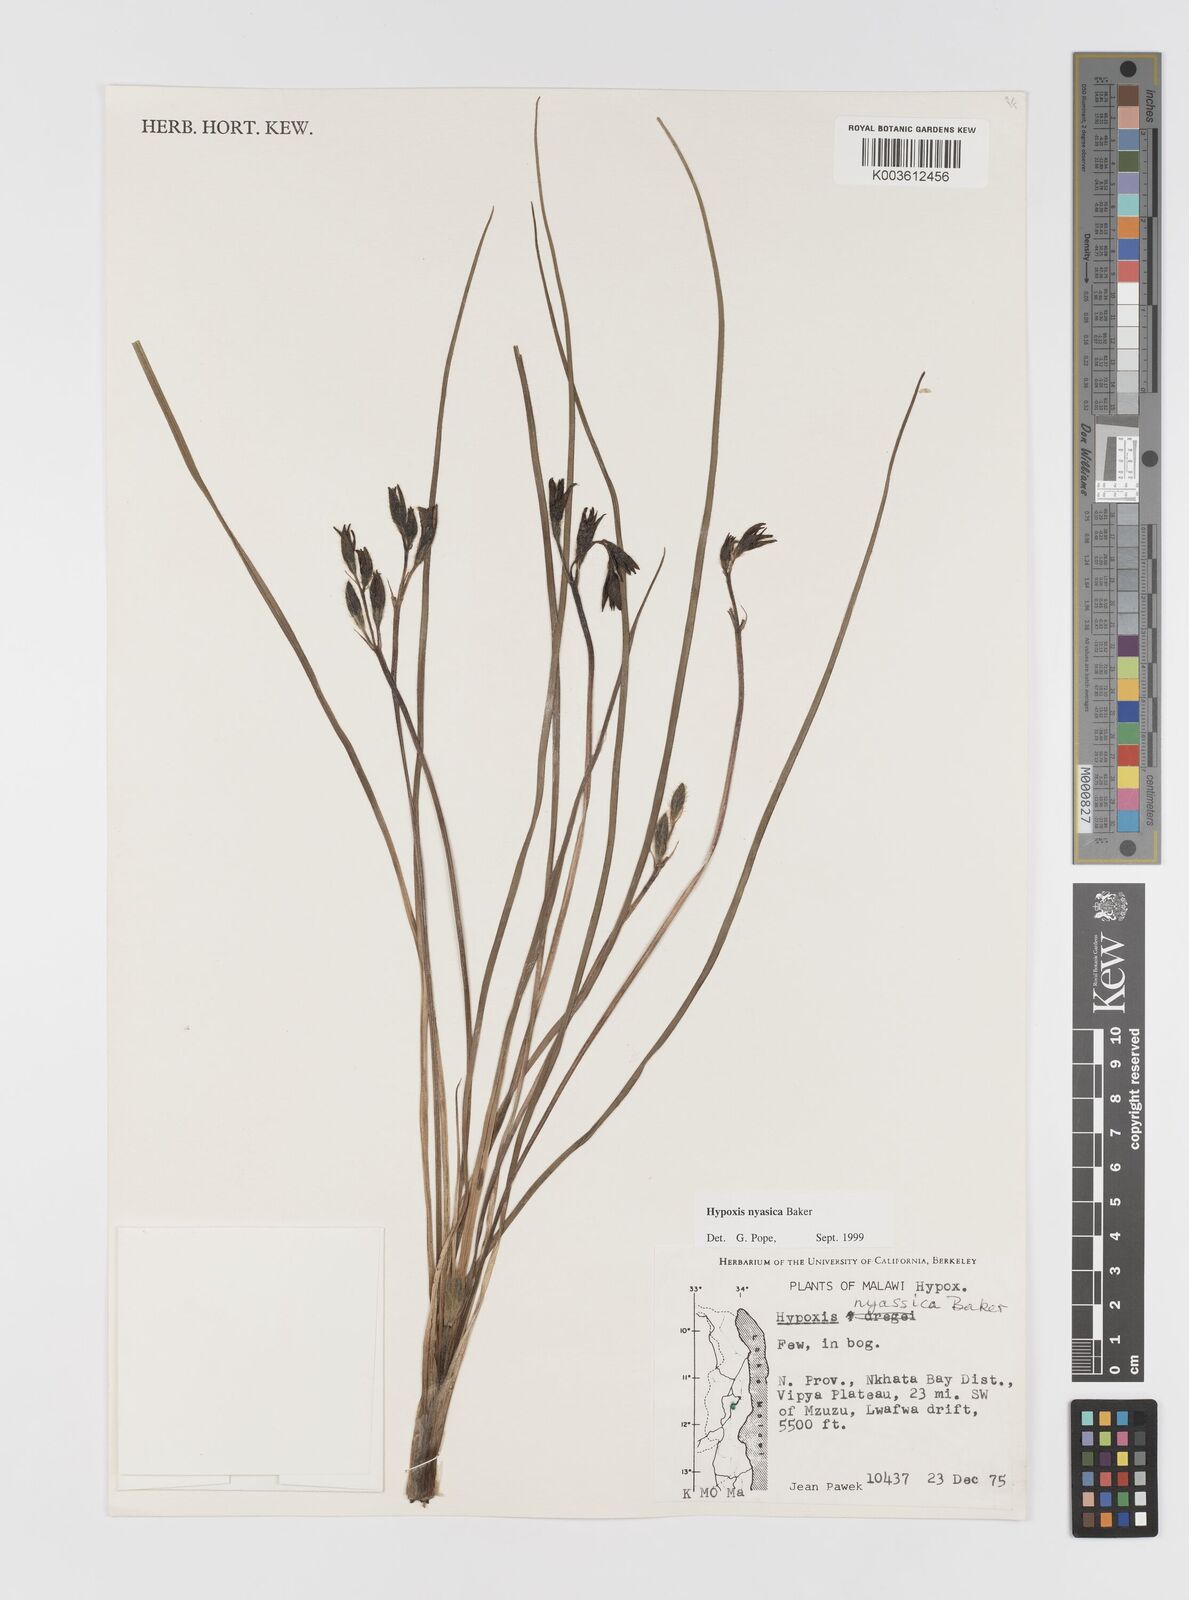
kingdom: Plantae
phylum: Tracheophyta
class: Liliopsida
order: Asparagales
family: Hypoxidaceae
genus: Hypoxis
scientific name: Hypoxis nyasica
